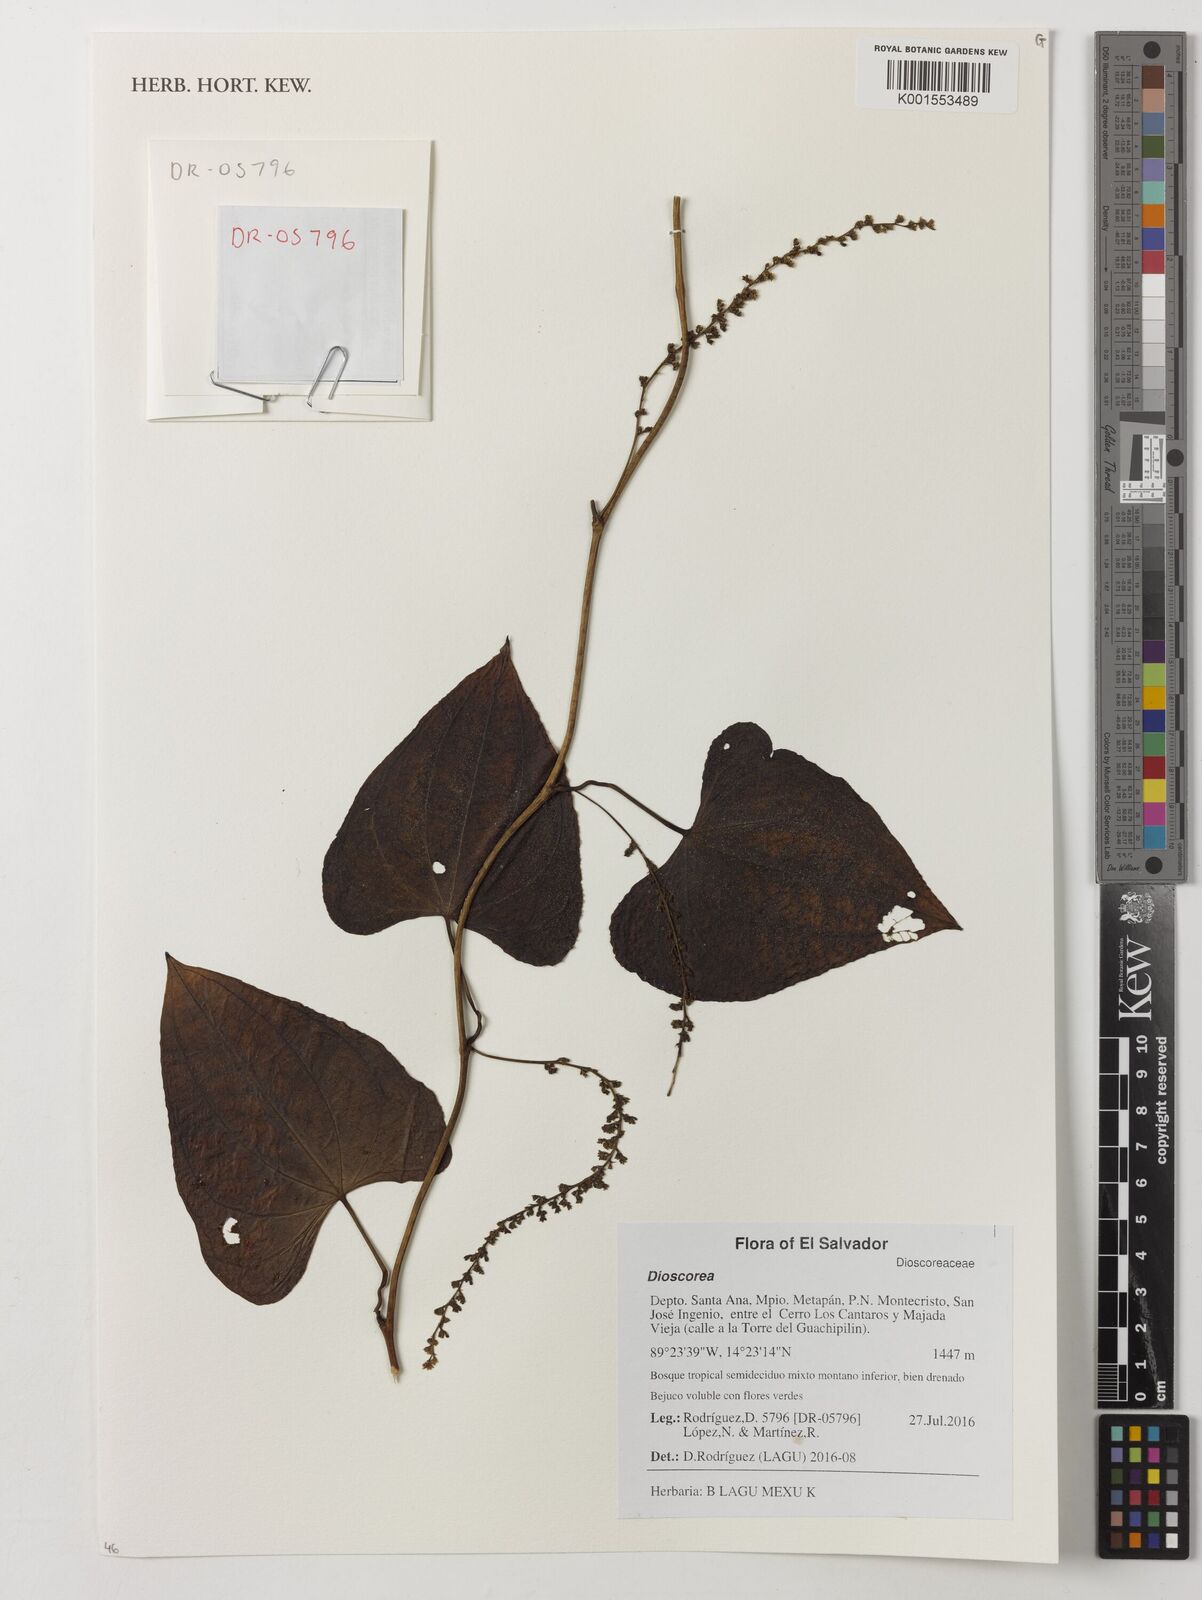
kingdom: Plantae
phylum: Tracheophyta
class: Liliopsida
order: Dioscoreales
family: Dioscoreaceae
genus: Dioscorea
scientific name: Dioscorea
